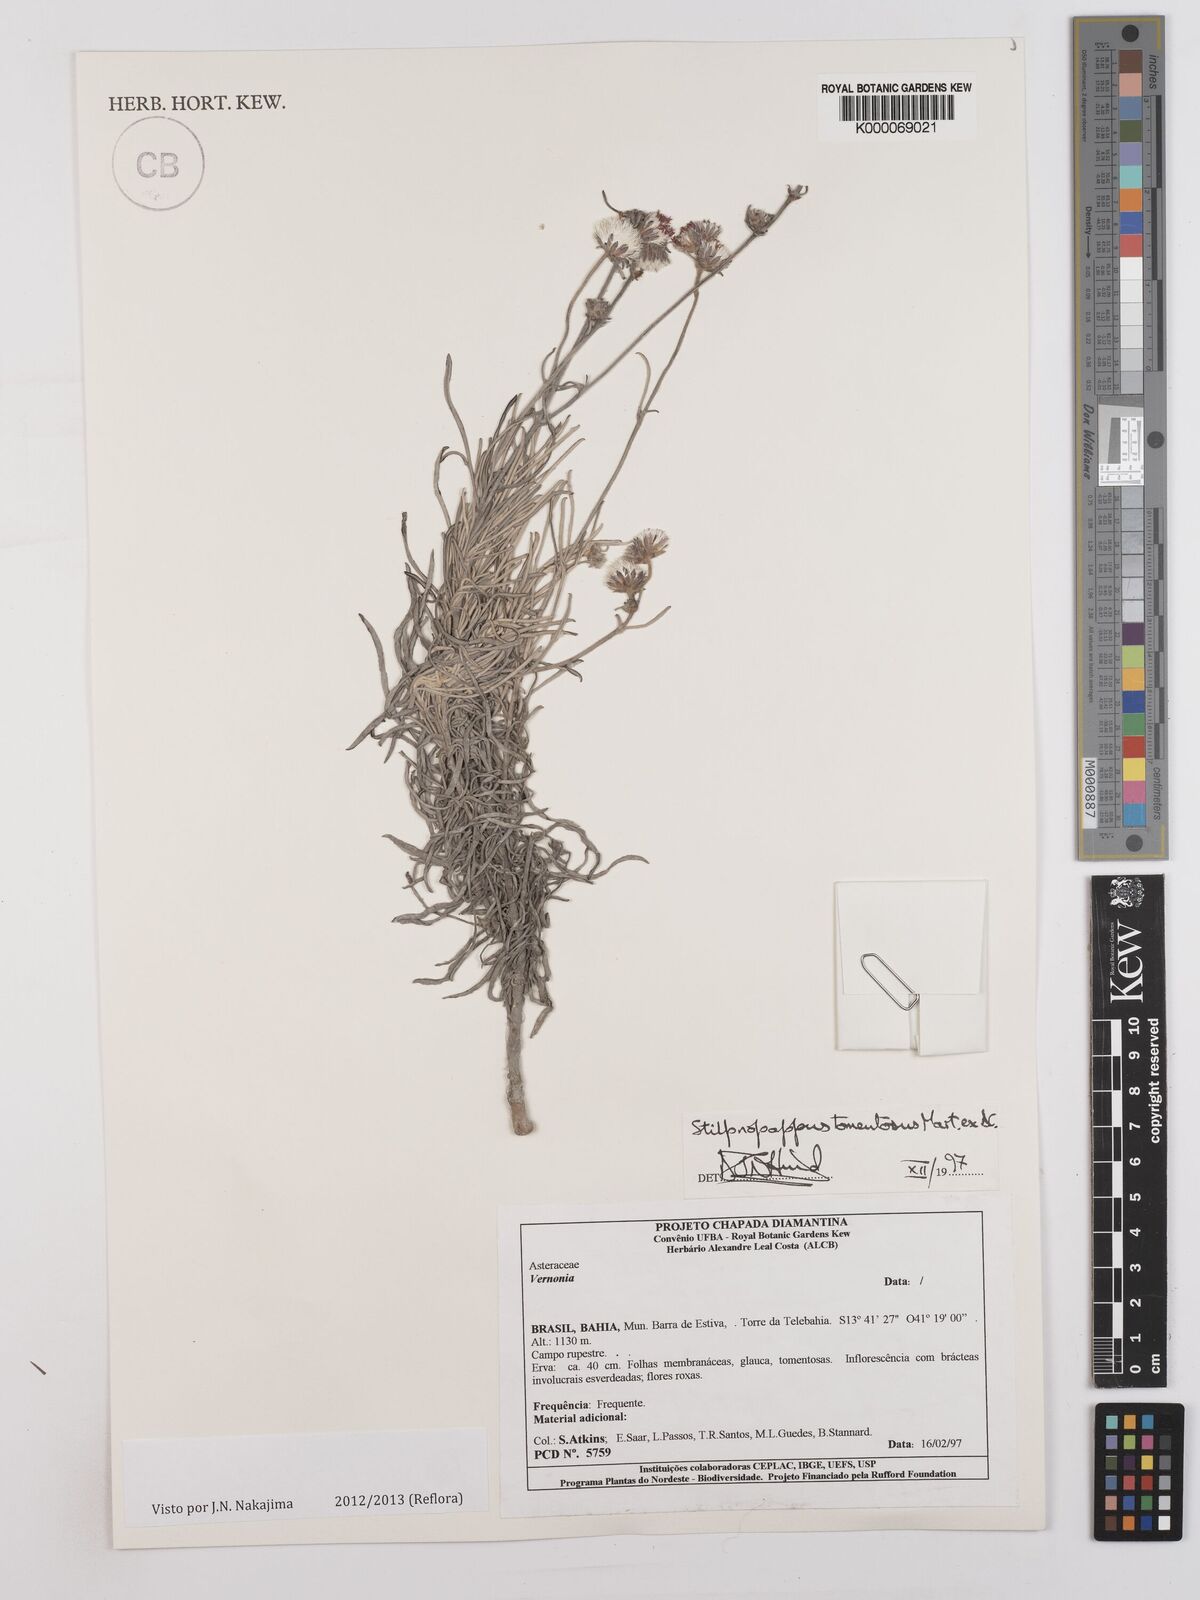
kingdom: Plantae
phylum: Tracheophyta
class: Magnoliopsida
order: Asterales
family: Asteraceae
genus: Stilpnopappus
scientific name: Stilpnopappus tomentosus
